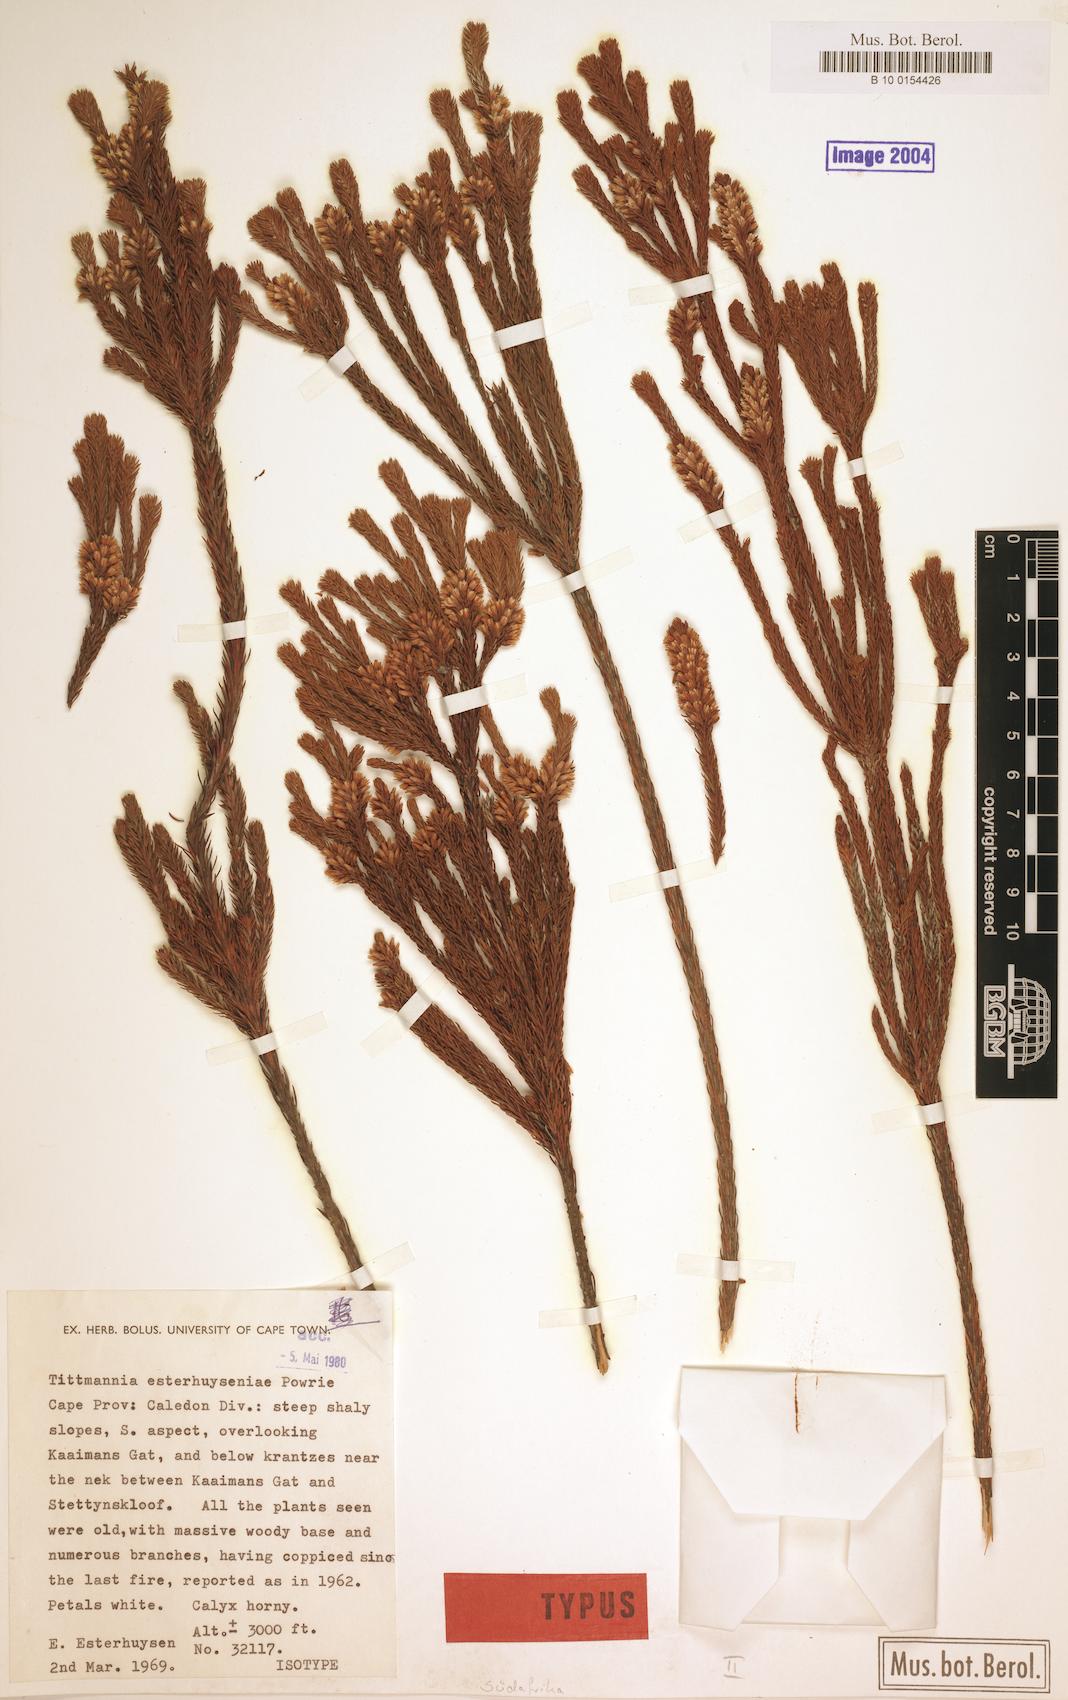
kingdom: Plantae
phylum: Tracheophyta
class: Magnoliopsida
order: Bruniales
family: Bruniaceae
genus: Audouinia
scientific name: Audouinia esterhuyseniae
